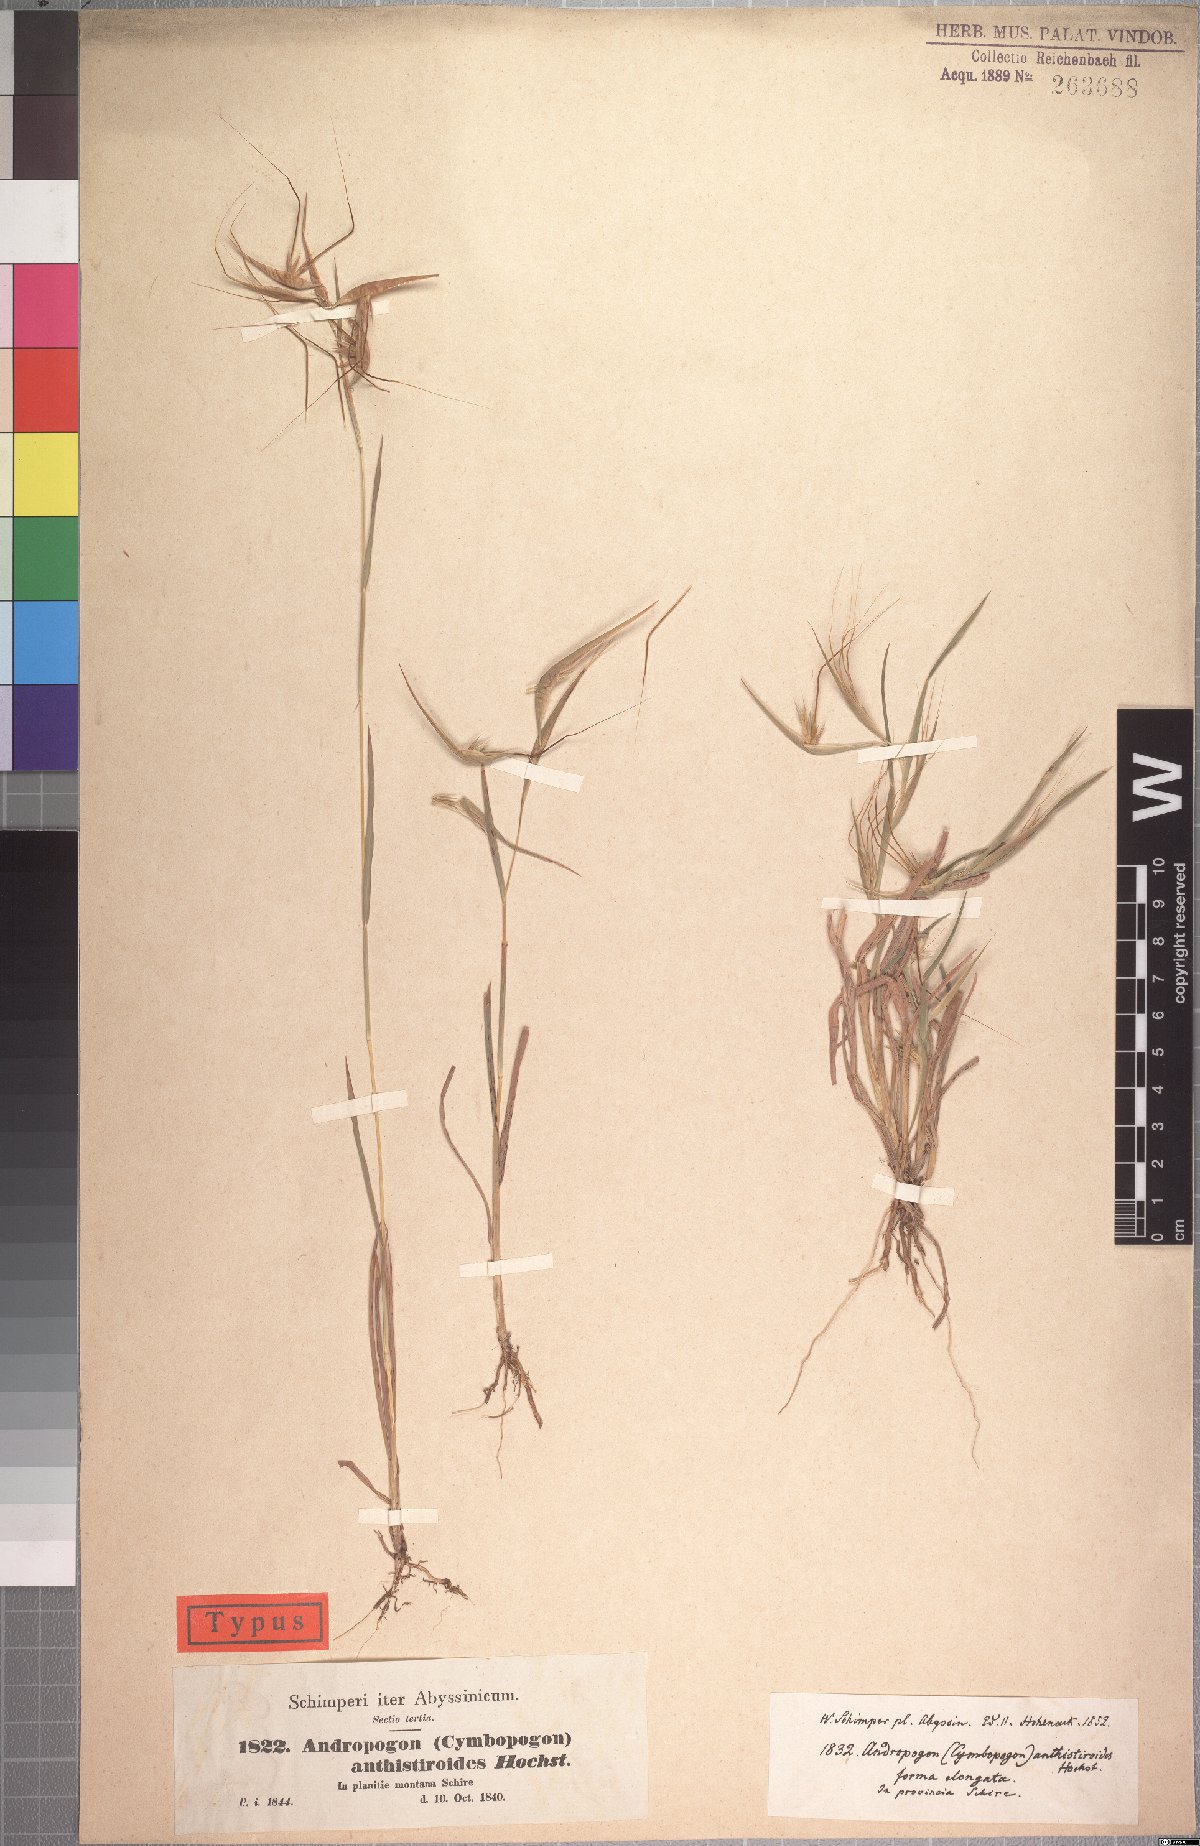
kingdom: Plantae
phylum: Tracheophyta
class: Liliopsida
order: Poales
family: Poaceae
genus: Hyparrhenia
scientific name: Hyparrhenia anthistirioides
